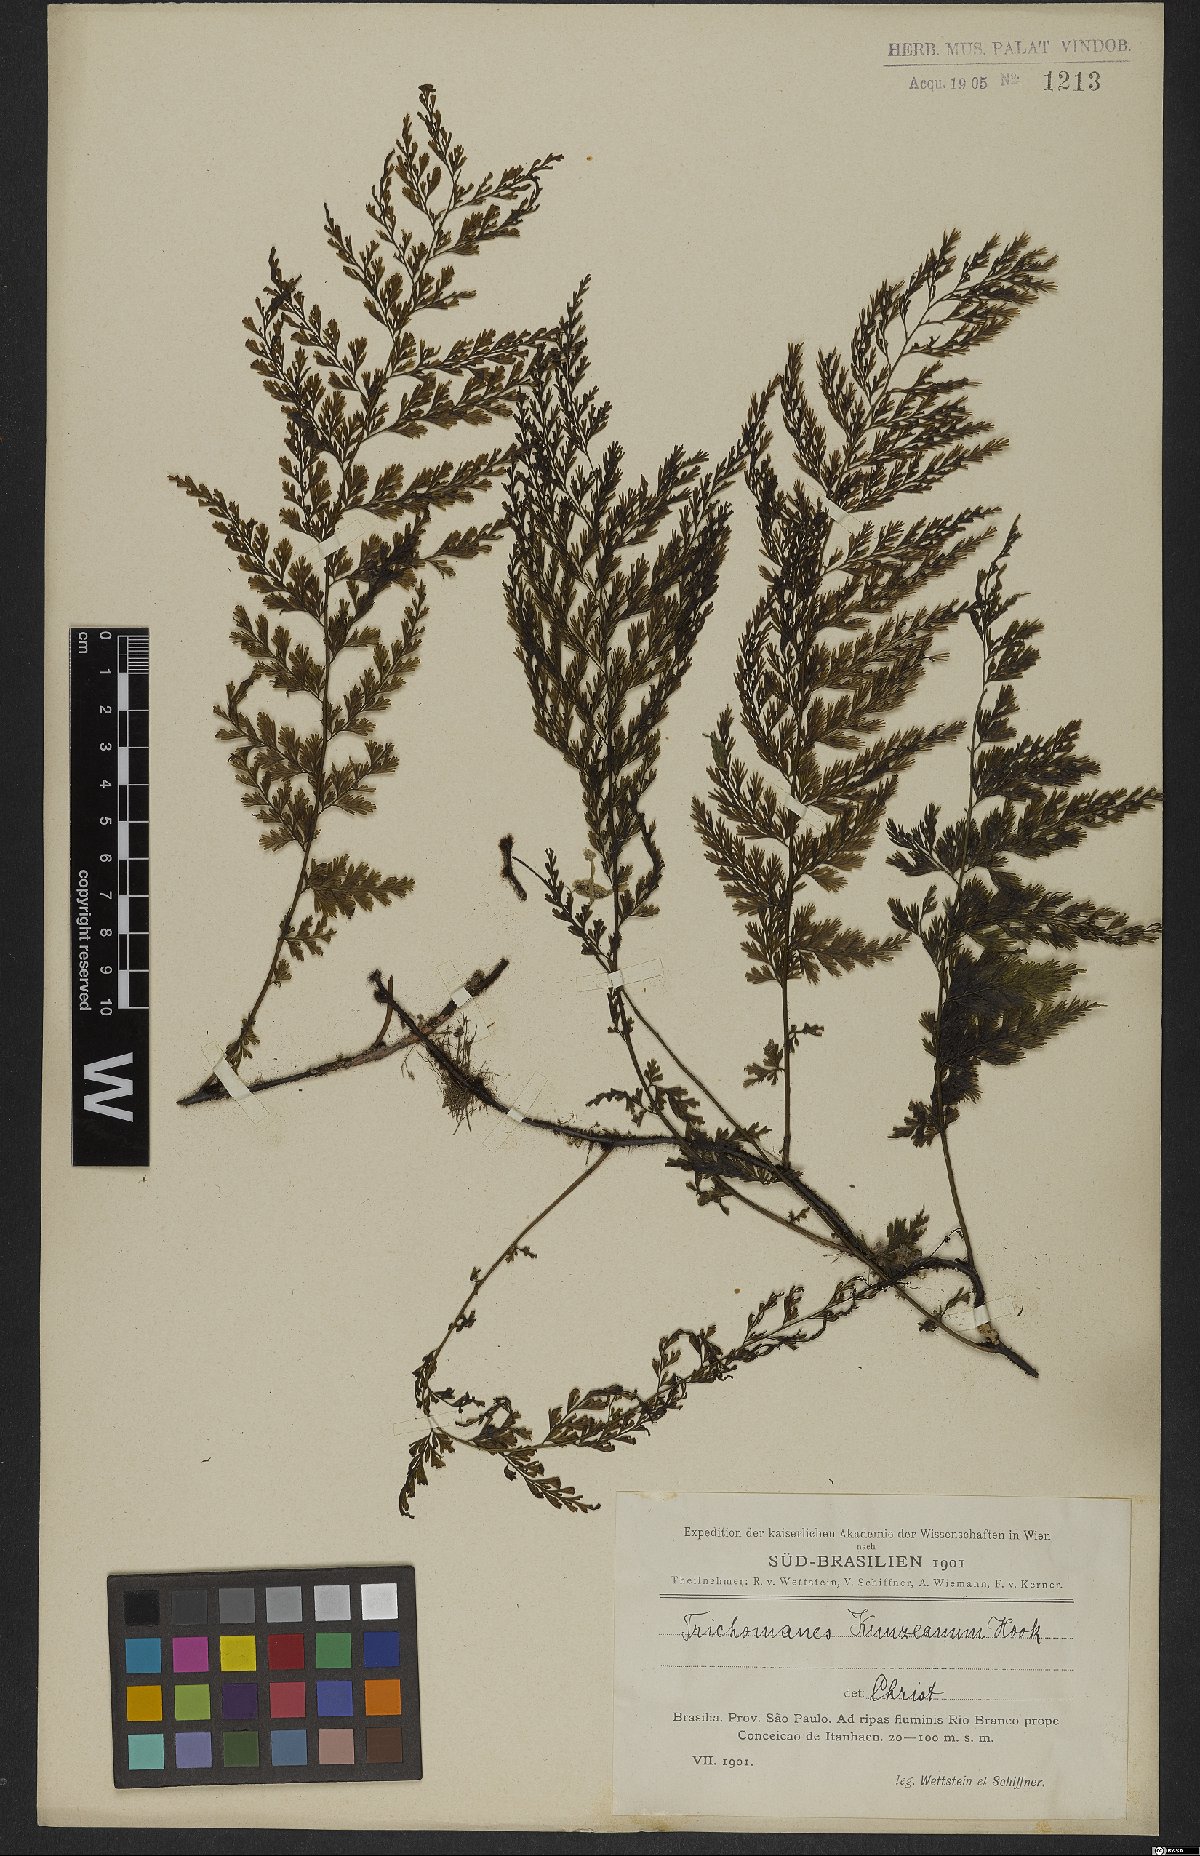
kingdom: Plantae
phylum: Tracheophyta
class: Polypodiopsida
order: Hymenophyllales
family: Hymenophyllaceae
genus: Vandenboschia
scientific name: Vandenboschia radicans
